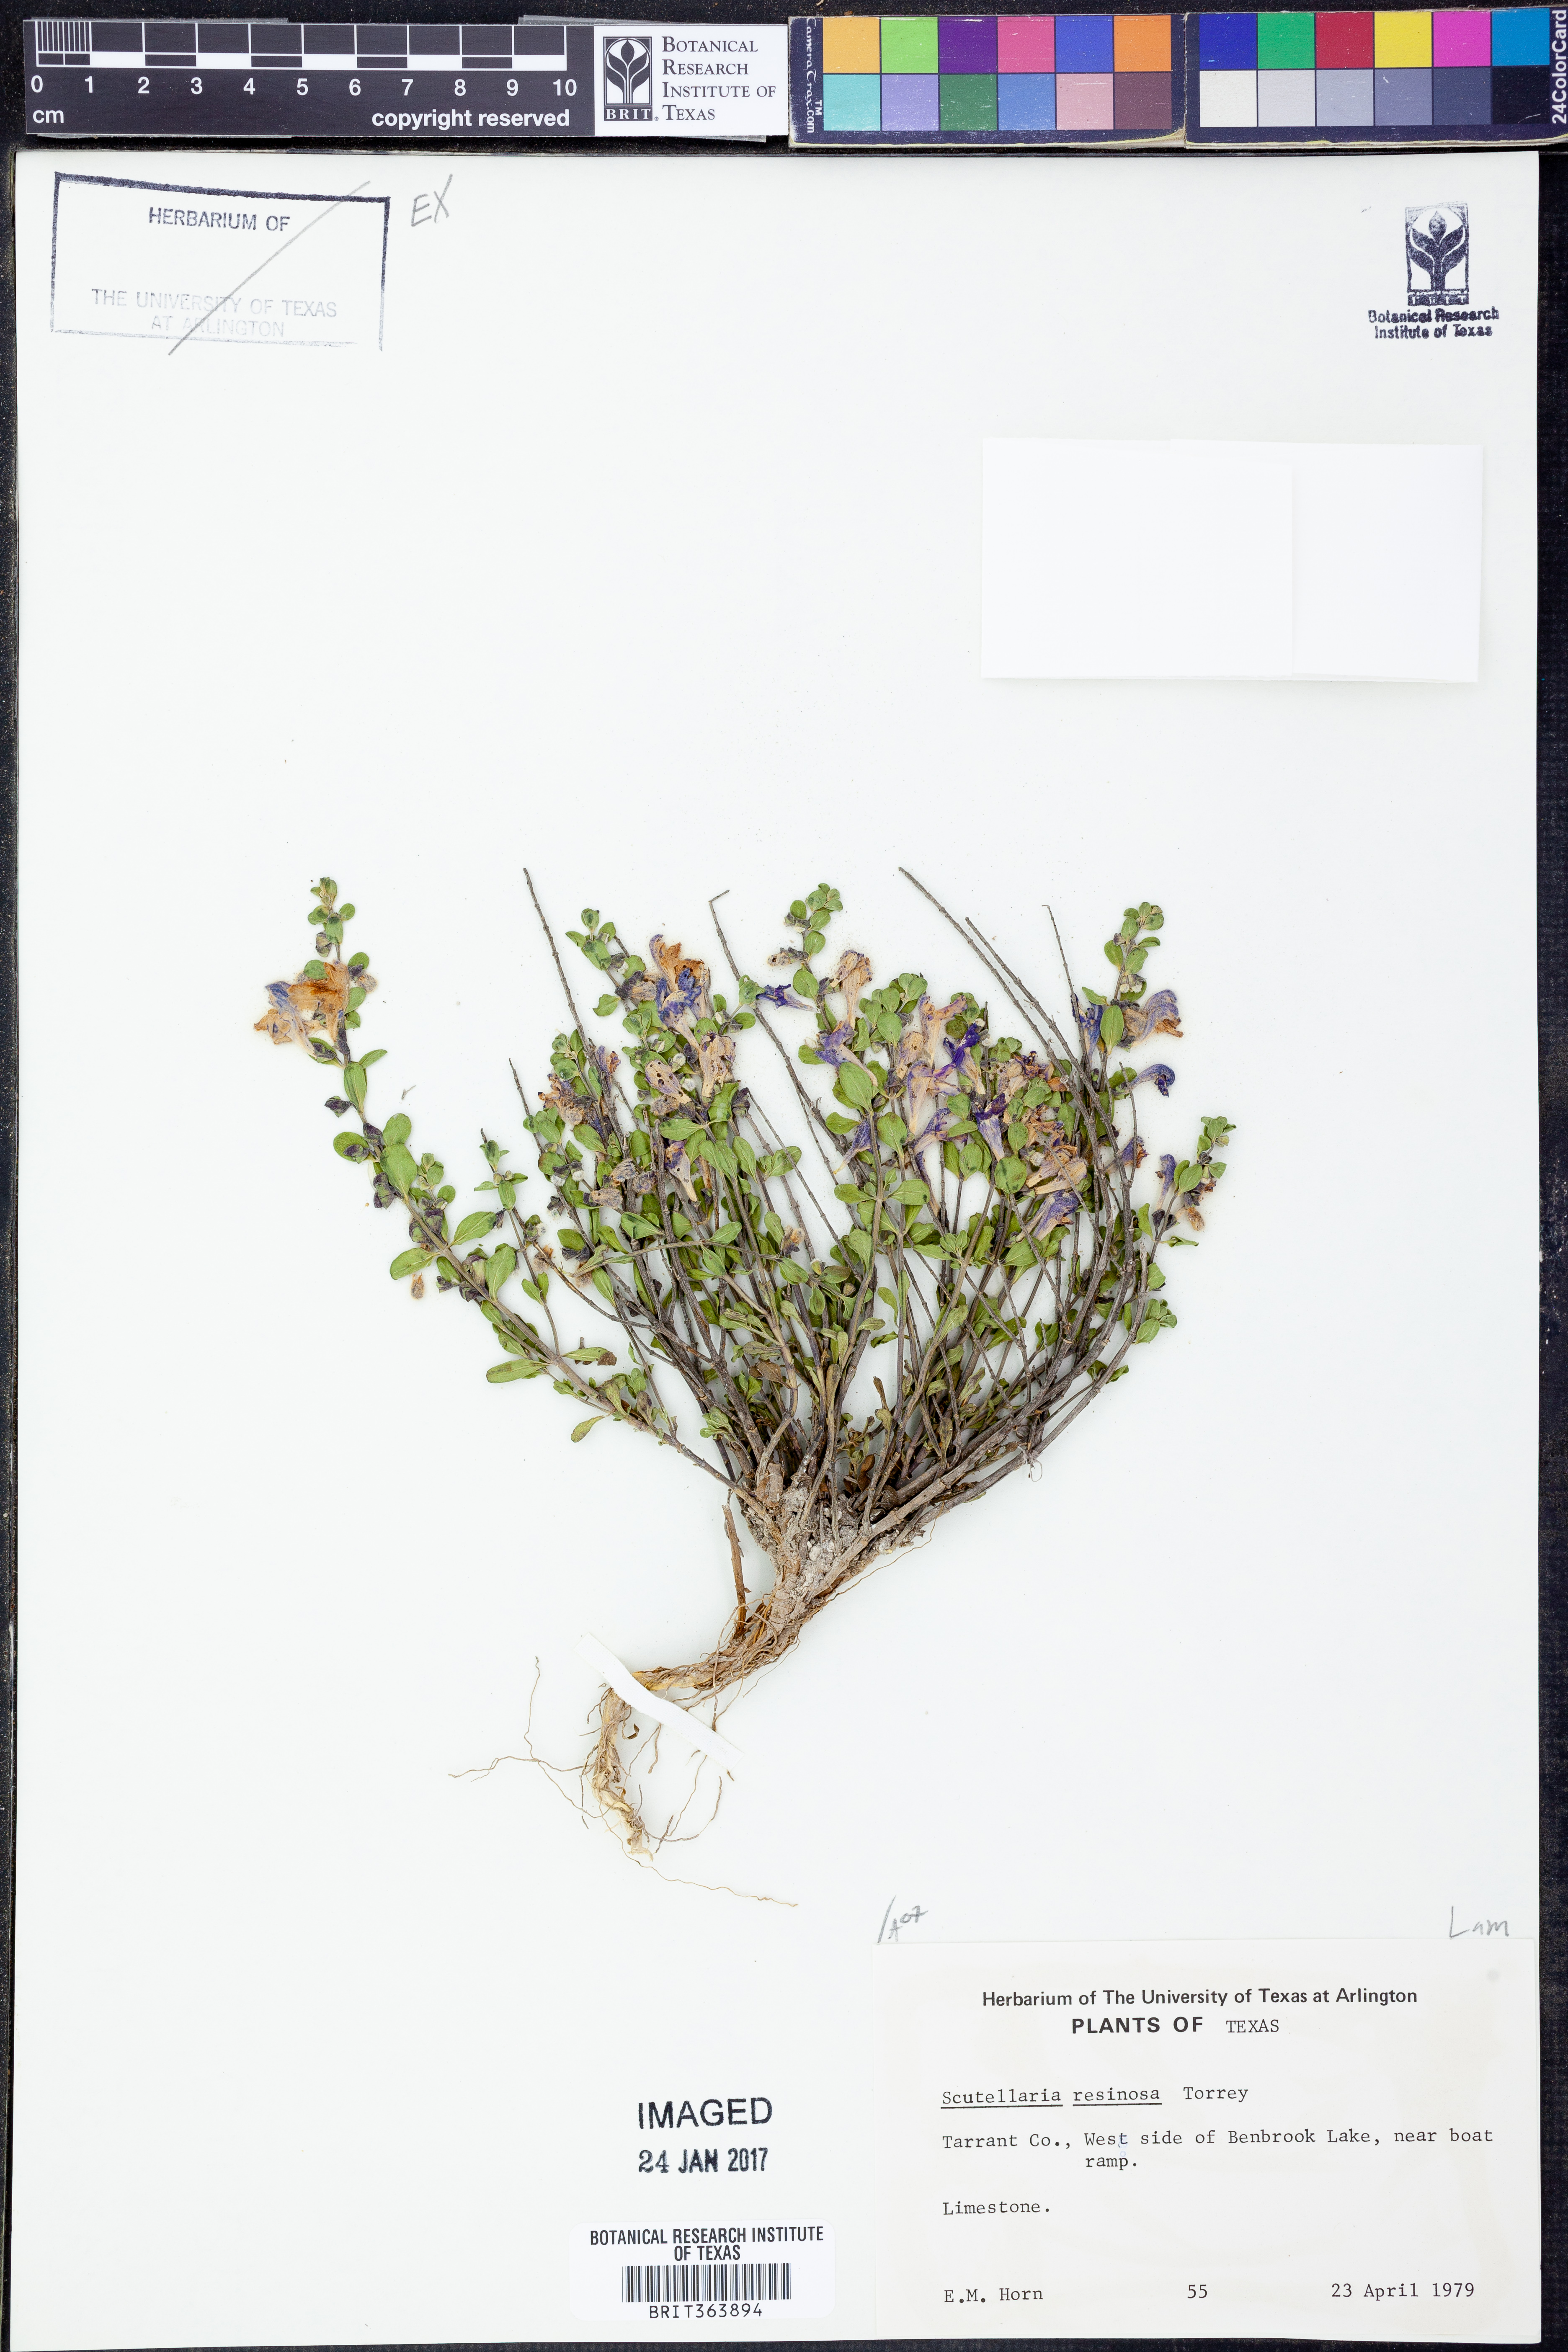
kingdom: Plantae
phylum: Tracheophyta
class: Magnoliopsida
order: Lamiales
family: Lamiaceae
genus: Scutellaria
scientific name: Scutellaria resinosa
